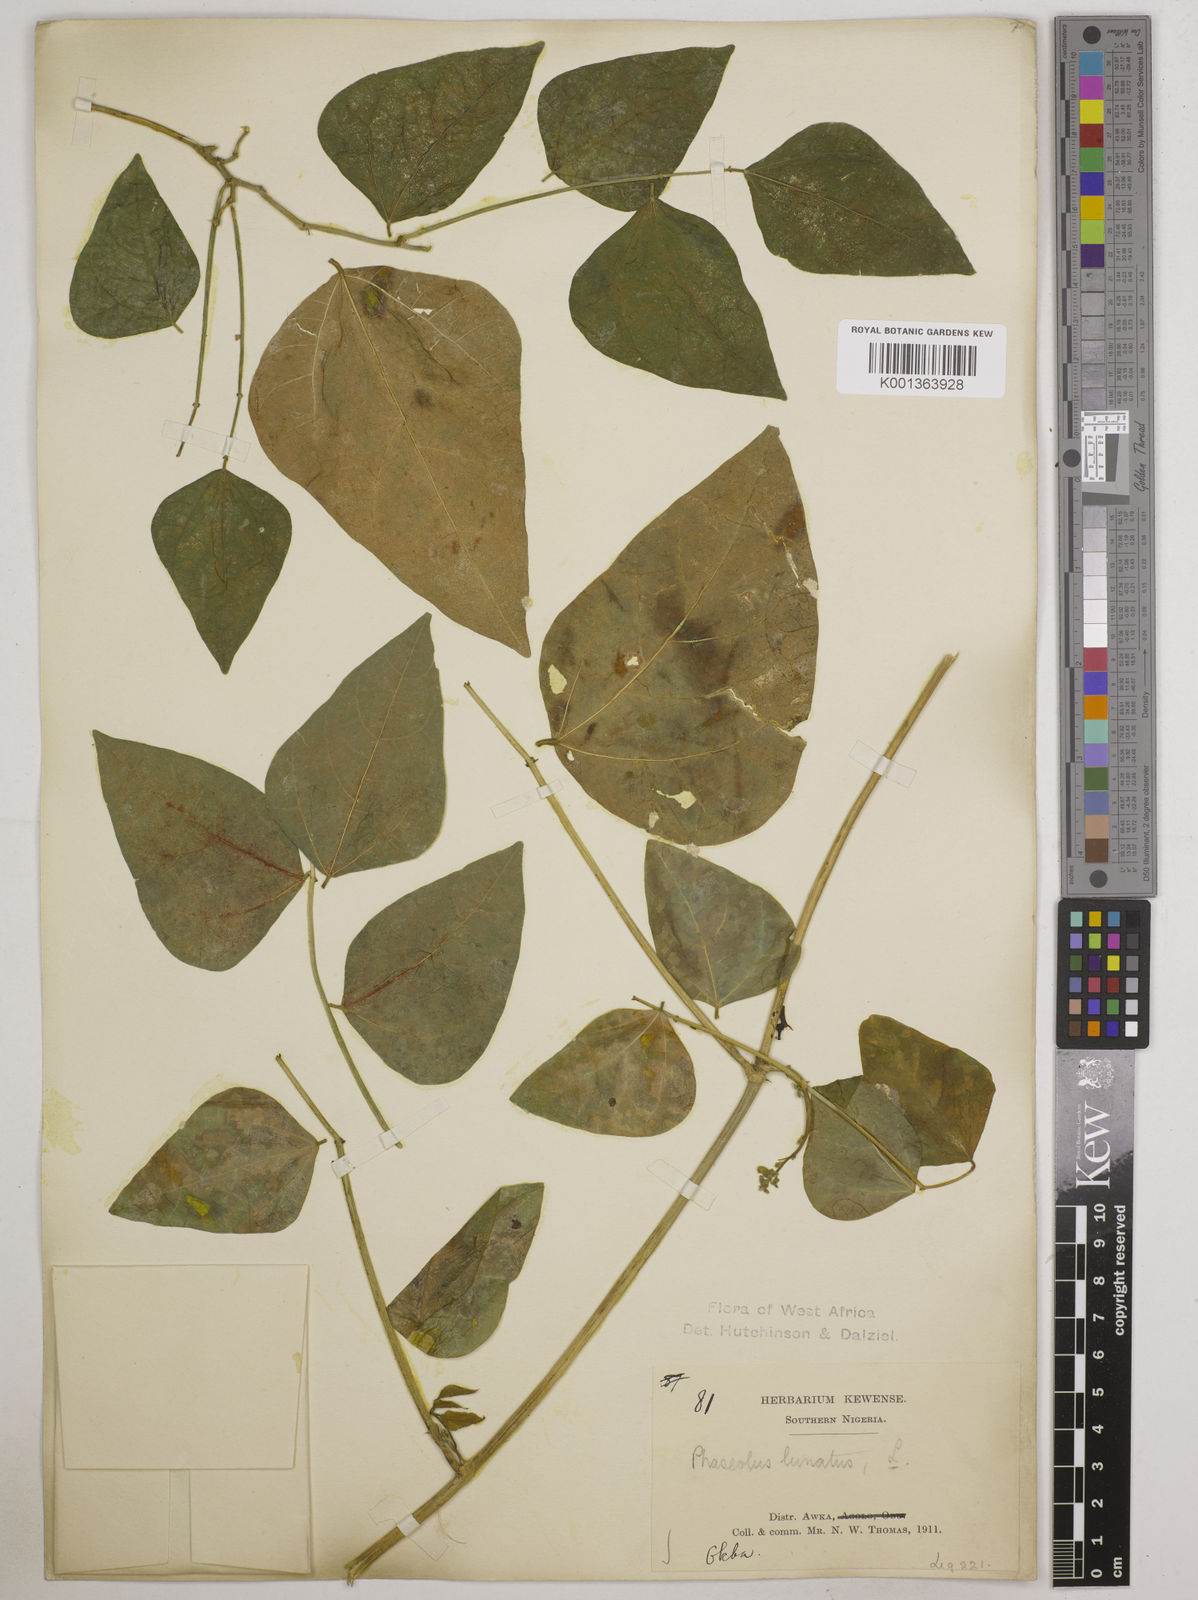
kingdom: Plantae
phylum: Tracheophyta
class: Magnoliopsida
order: Fabales
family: Fabaceae
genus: Phaseolus
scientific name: Phaseolus lunatus
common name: Sieva bean
